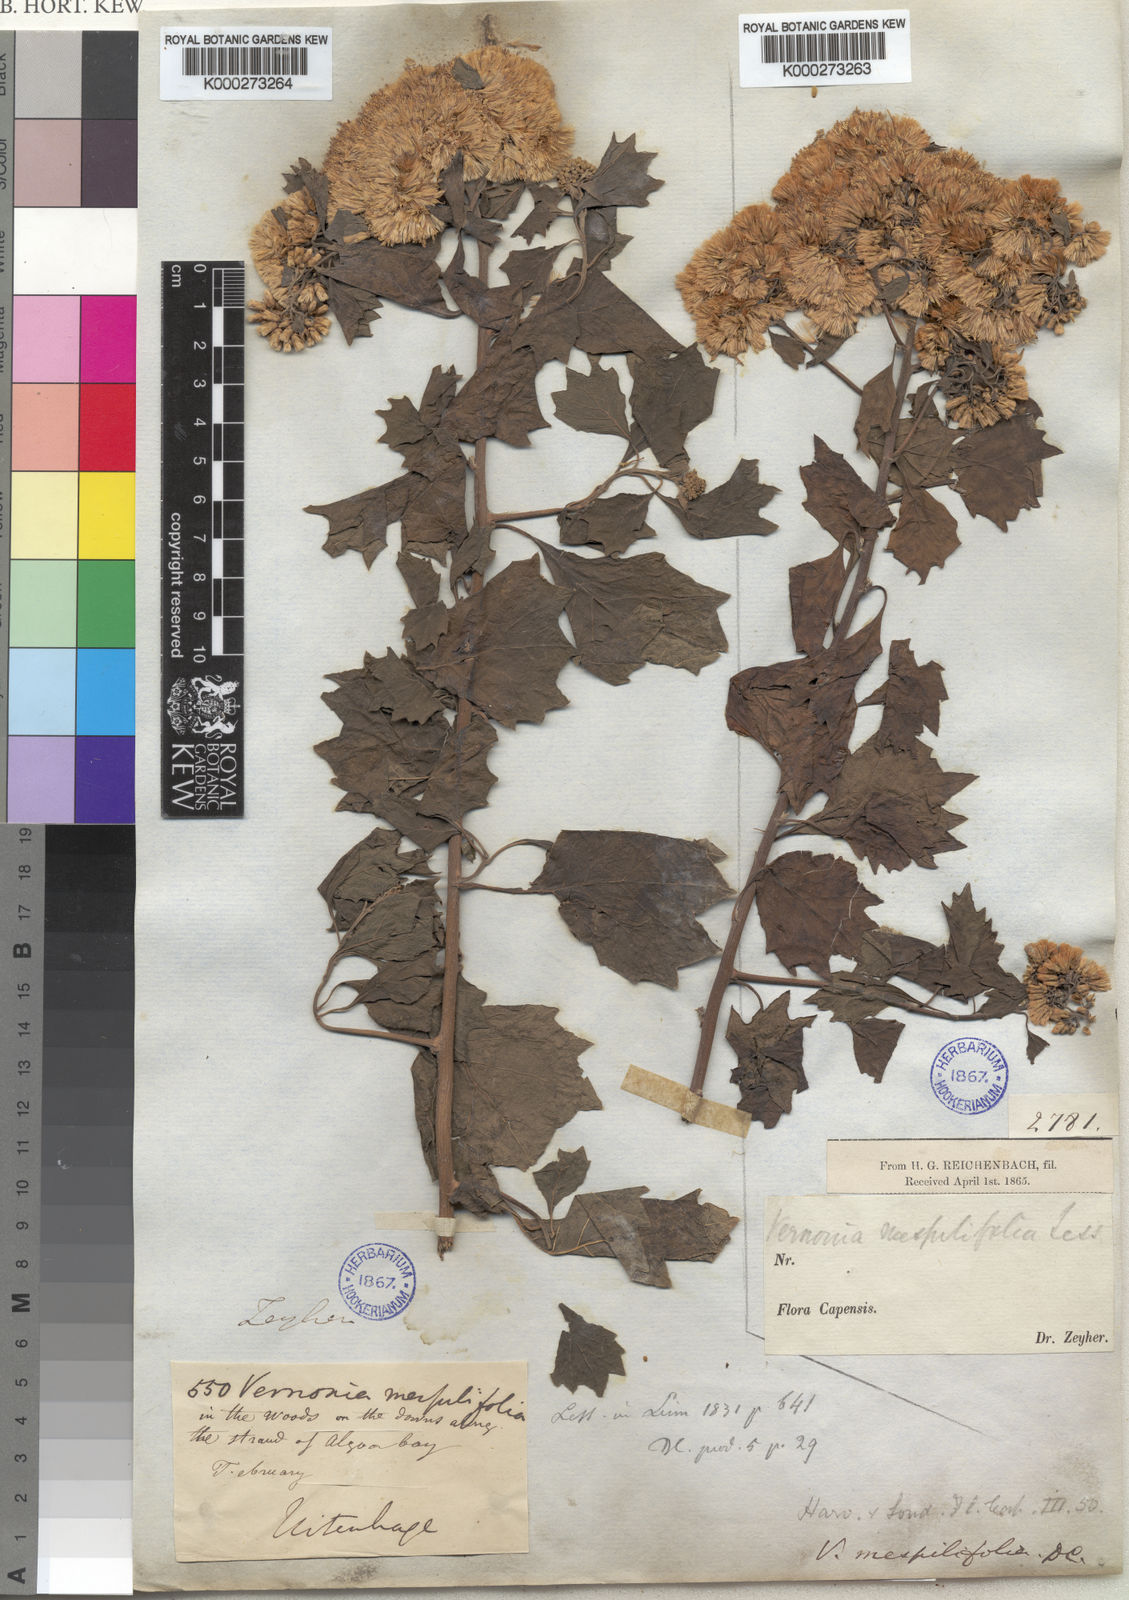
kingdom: Plantae
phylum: Tracheophyta
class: Magnoliopsida
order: Asterales
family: Asteraceae
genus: Gymnanthemum
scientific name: Gymnanthemum capense
